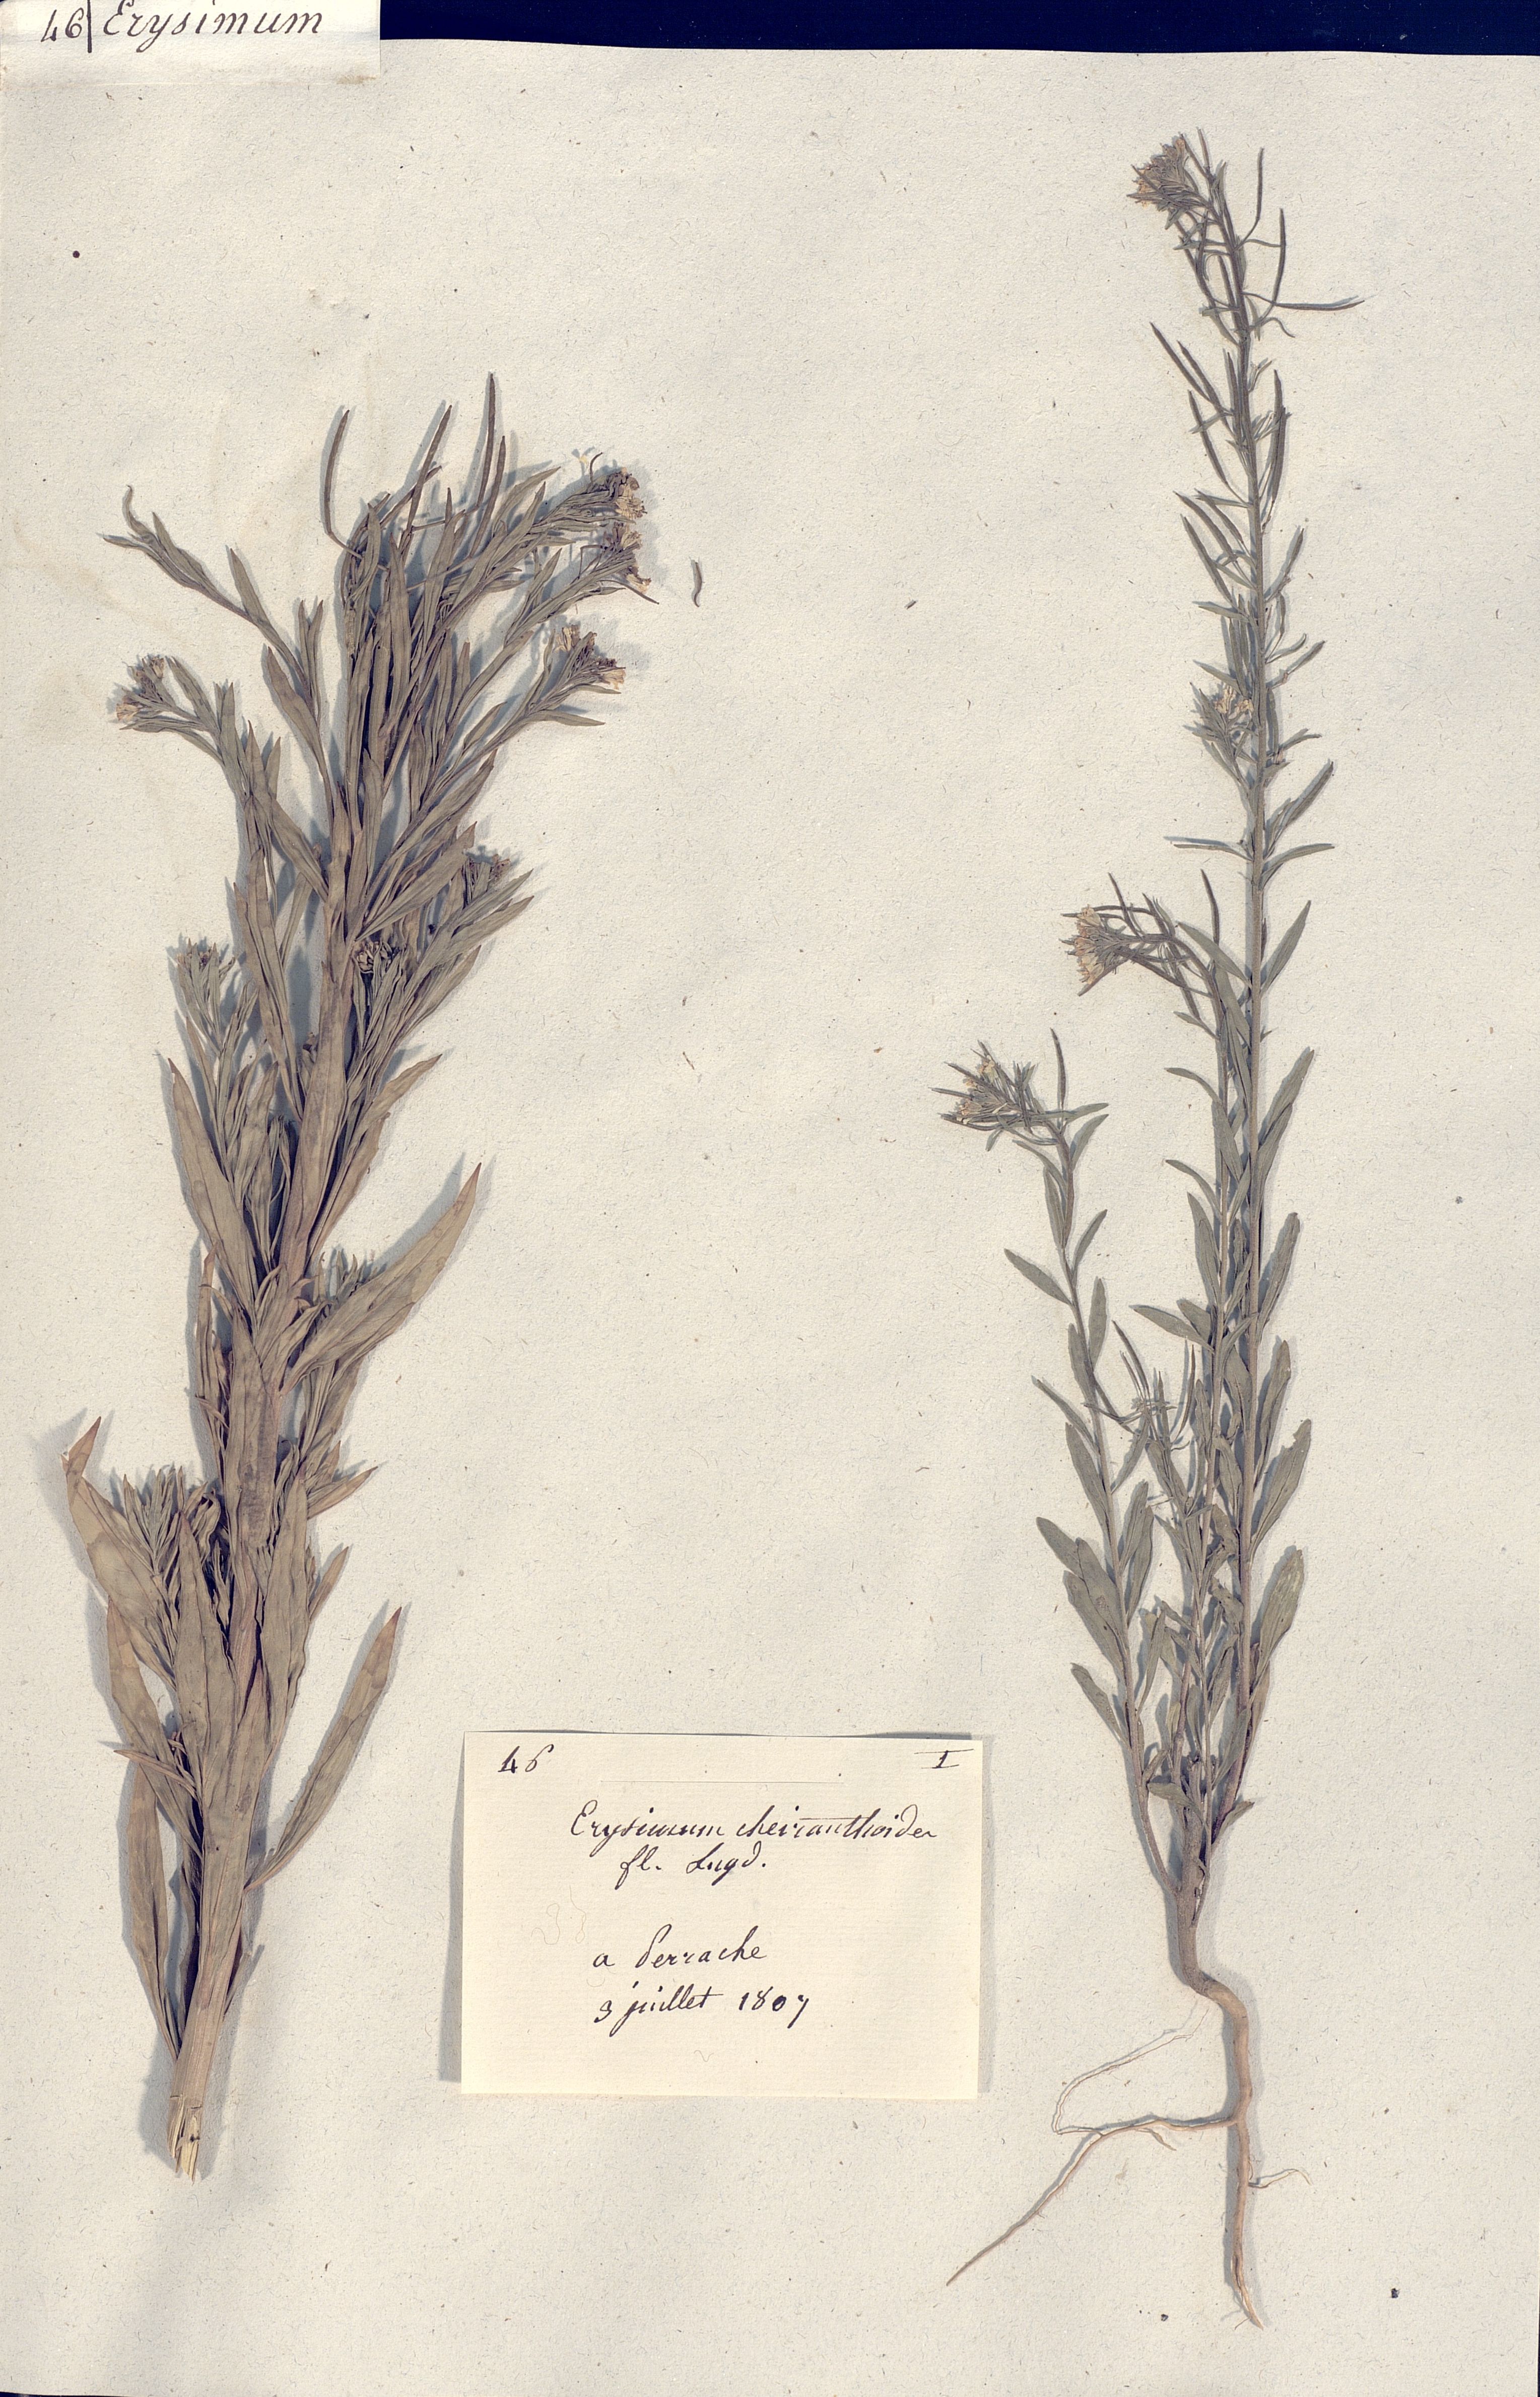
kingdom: Plantae
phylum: Tracheophyta
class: Magnoliopsida
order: Brassicales
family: Brassicaceae
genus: Erysimum
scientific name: Erysimum cheiranthoides
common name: Treacle mustard
